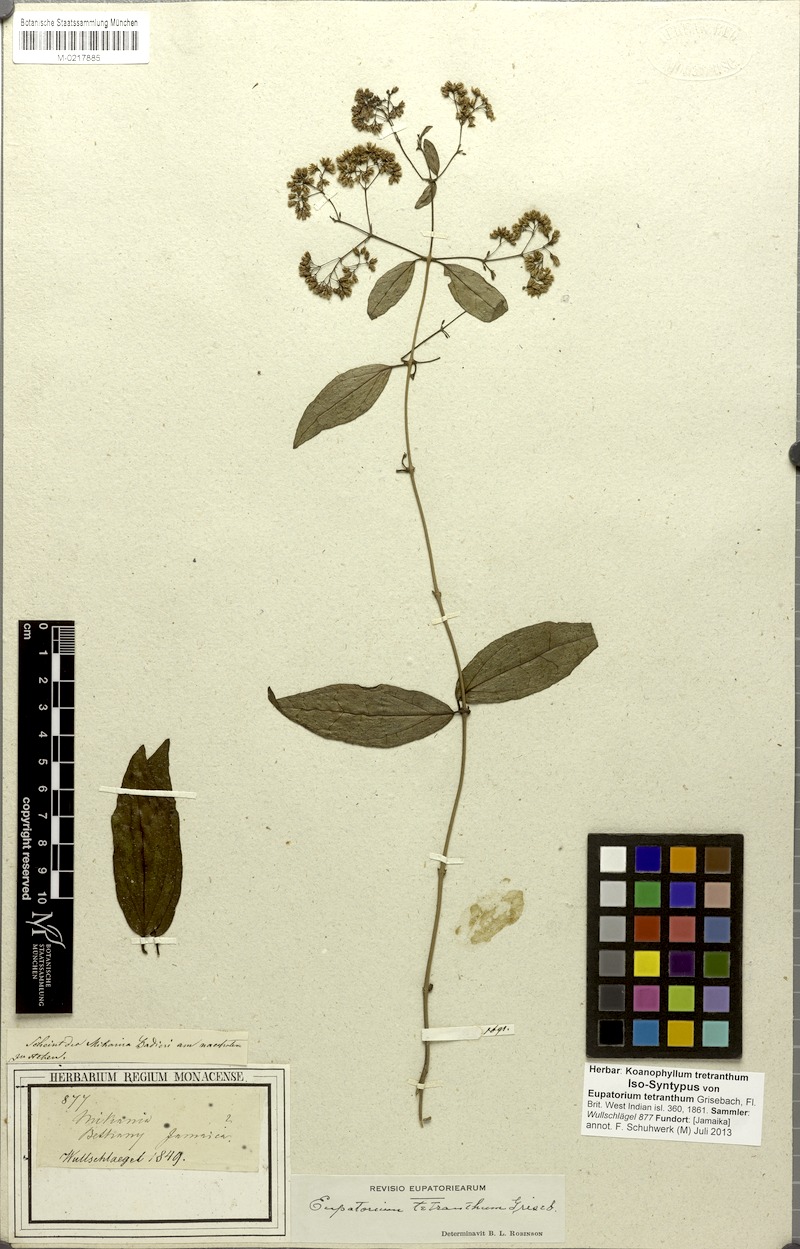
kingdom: Plantae
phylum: Tracheophyta
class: Magnoliopsida
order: Asterales
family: Asteraceae
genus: Koanophyllon
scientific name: Koanophyllon tetranthum
